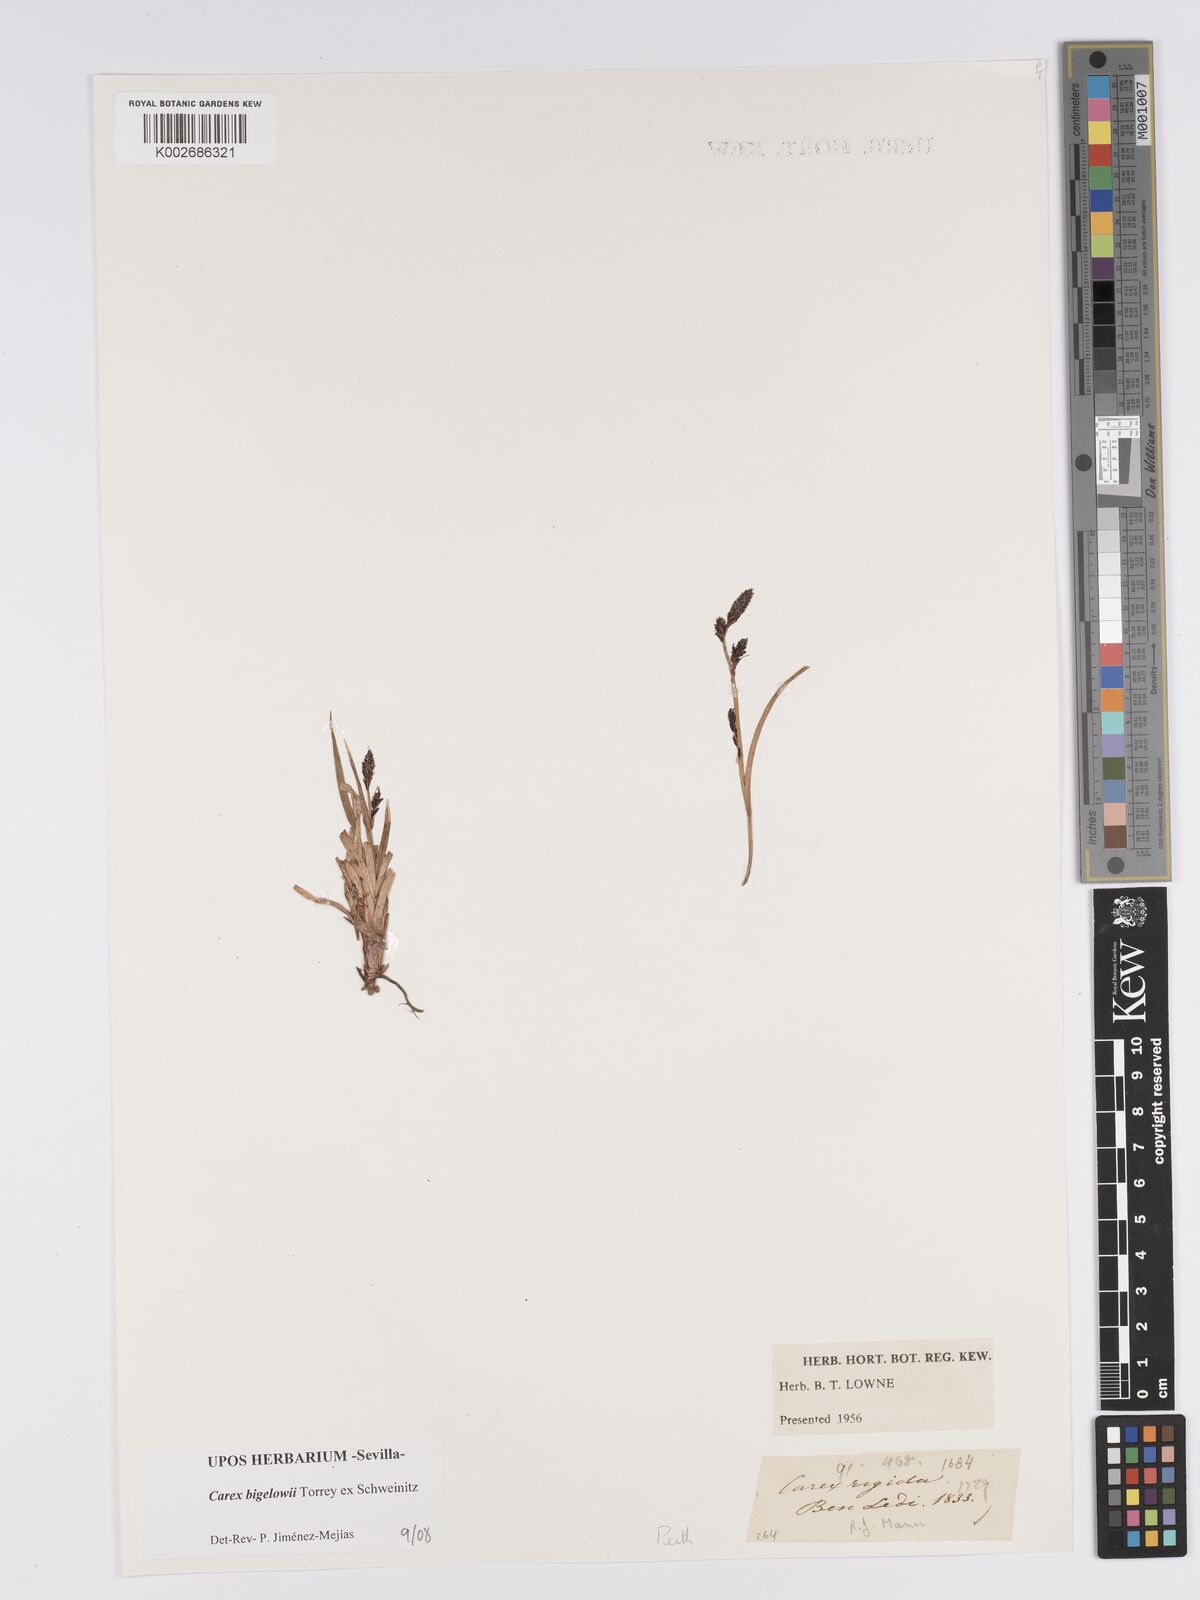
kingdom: Plantae
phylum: Tracheophyta
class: Liliopsida
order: Poales
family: Cyperaceae
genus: Carex
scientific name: Carex bigelowii
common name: Stiff sedge
